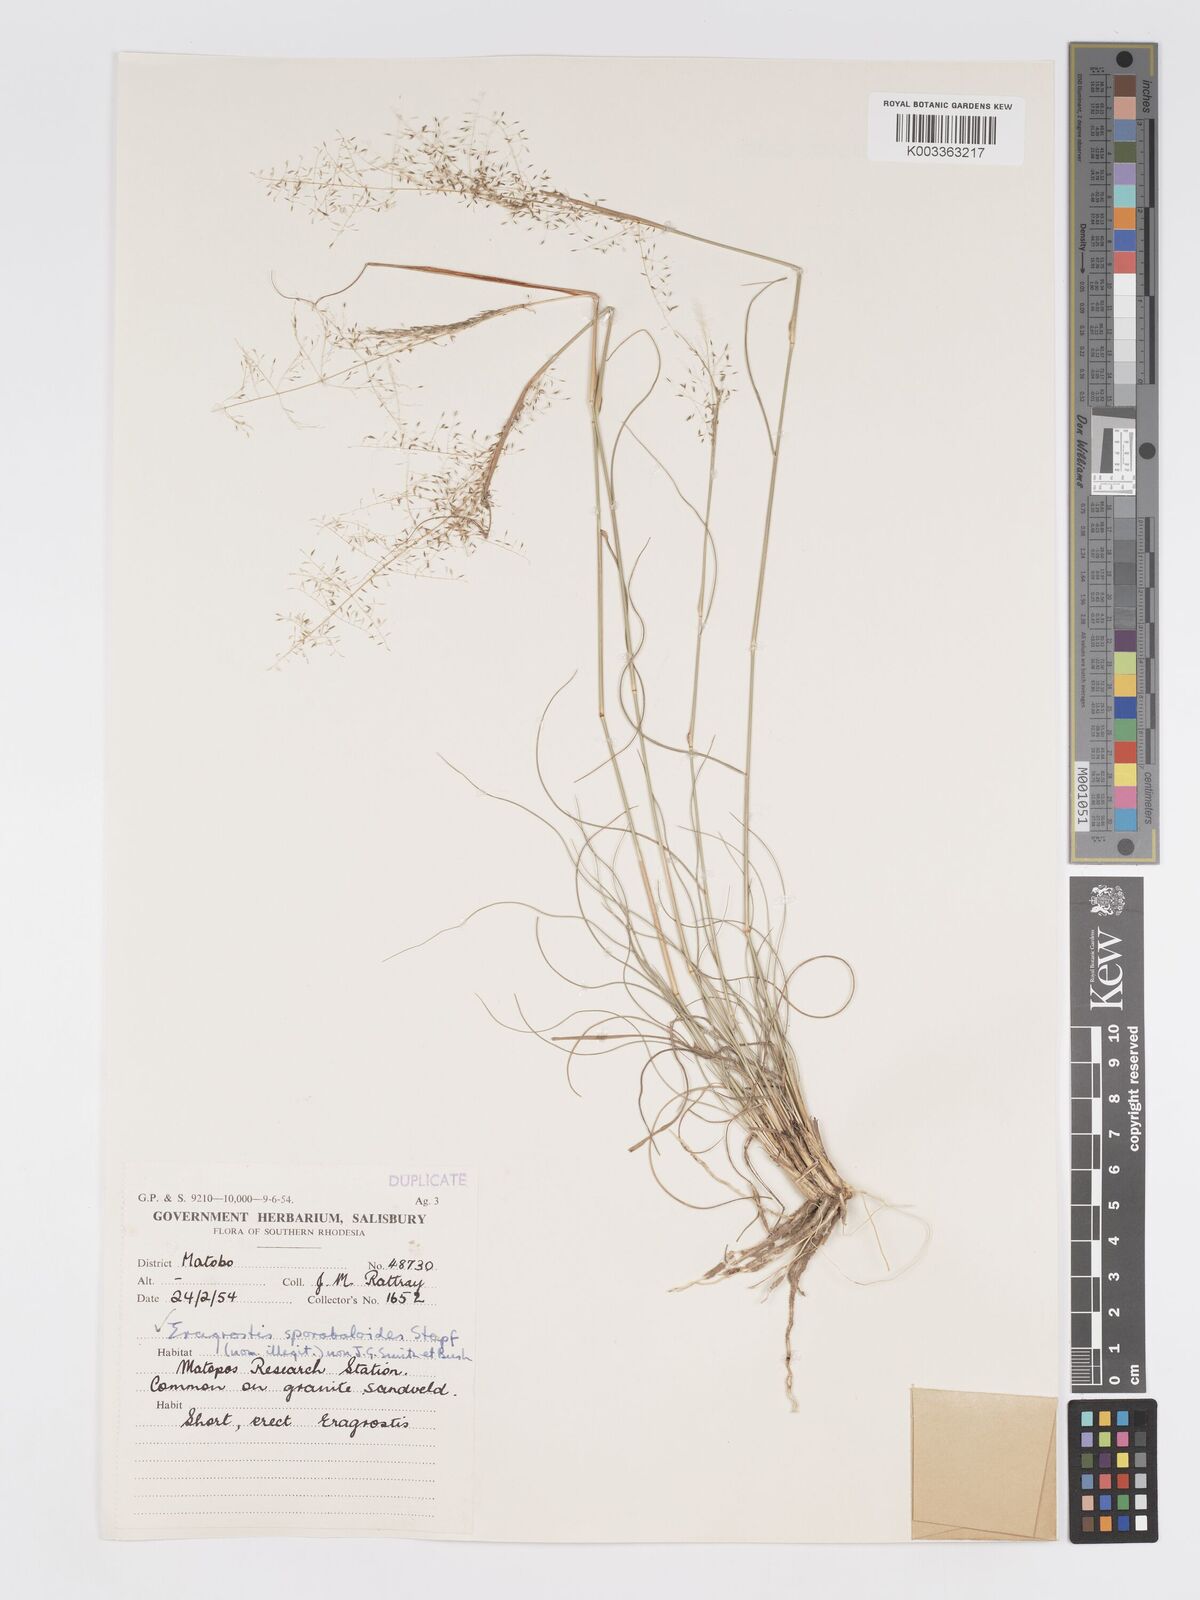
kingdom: Plantae
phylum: Tracheophyta
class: Liliopsida
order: Poales
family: Poaceae
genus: Eragrostis
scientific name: Eragrostis stapfii
